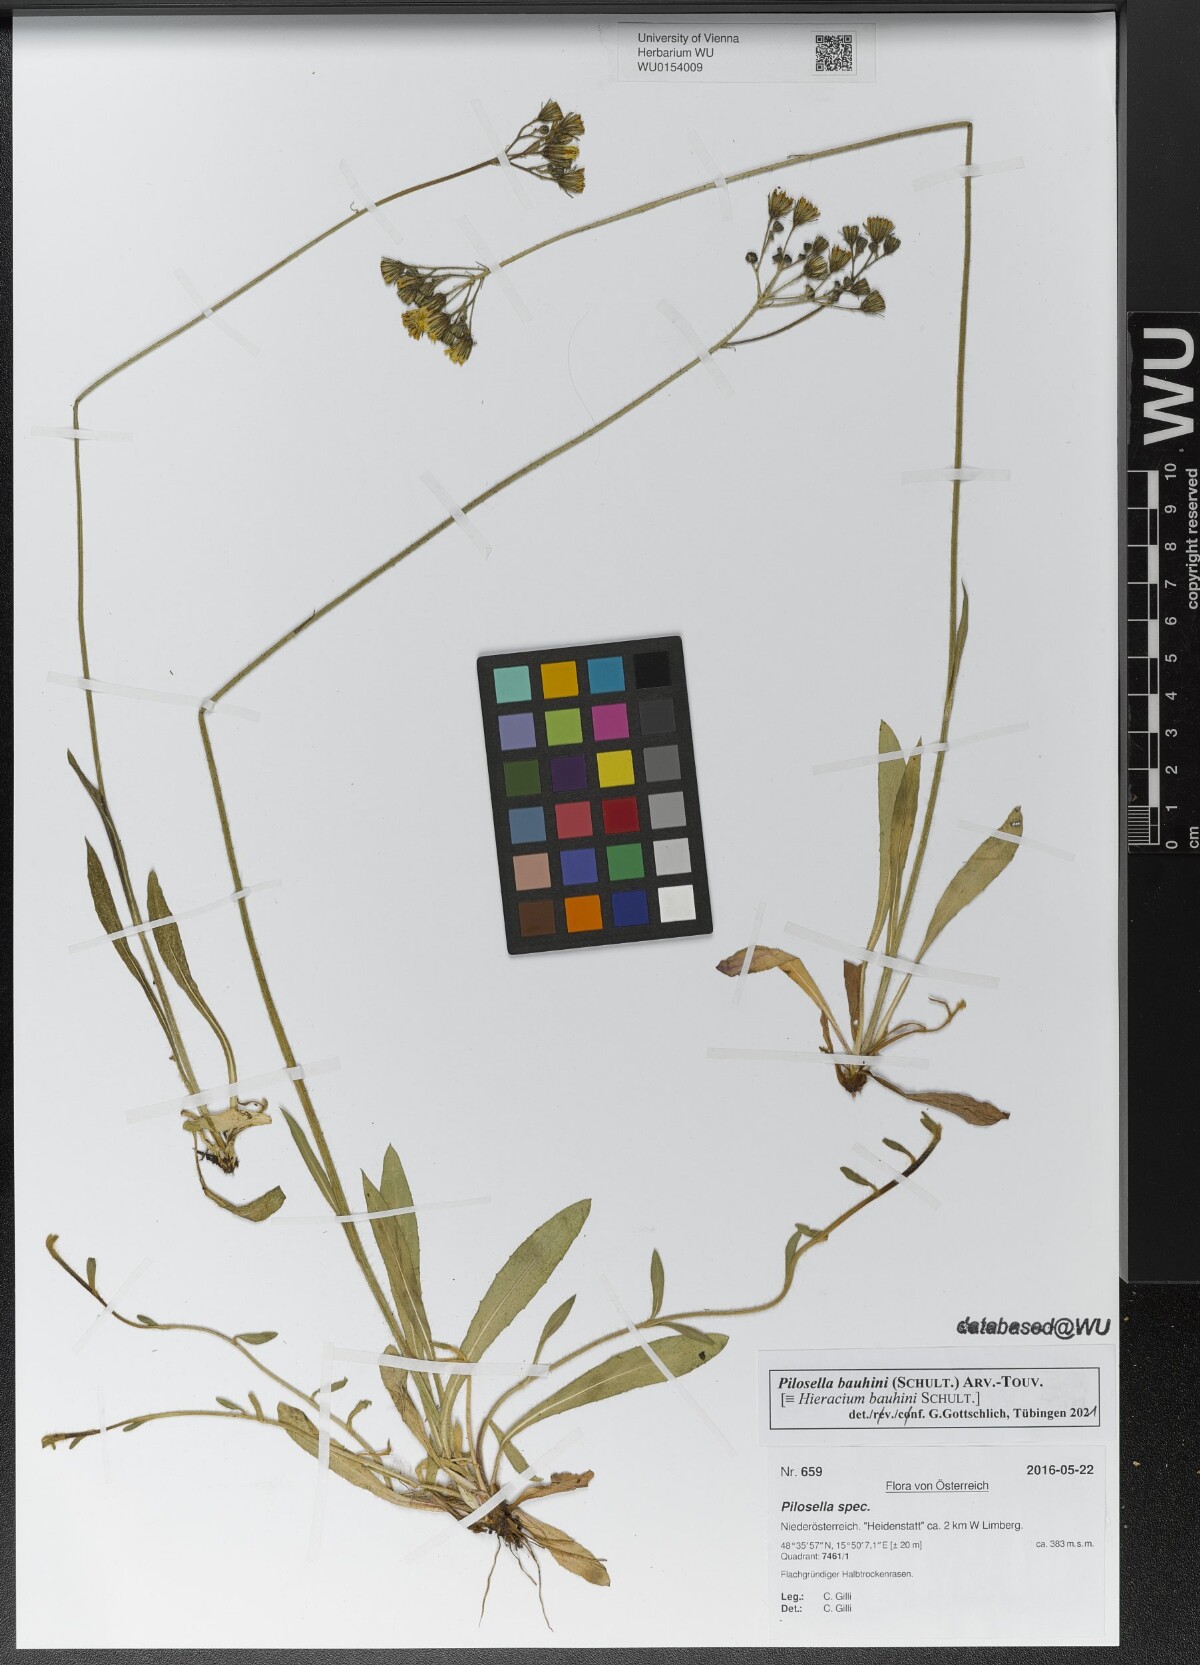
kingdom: Plantae
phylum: Tracheophyta
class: Magnoliopsida
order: Asterales
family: Asteraceae
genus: Pilosella
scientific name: Pilosella bauhini
